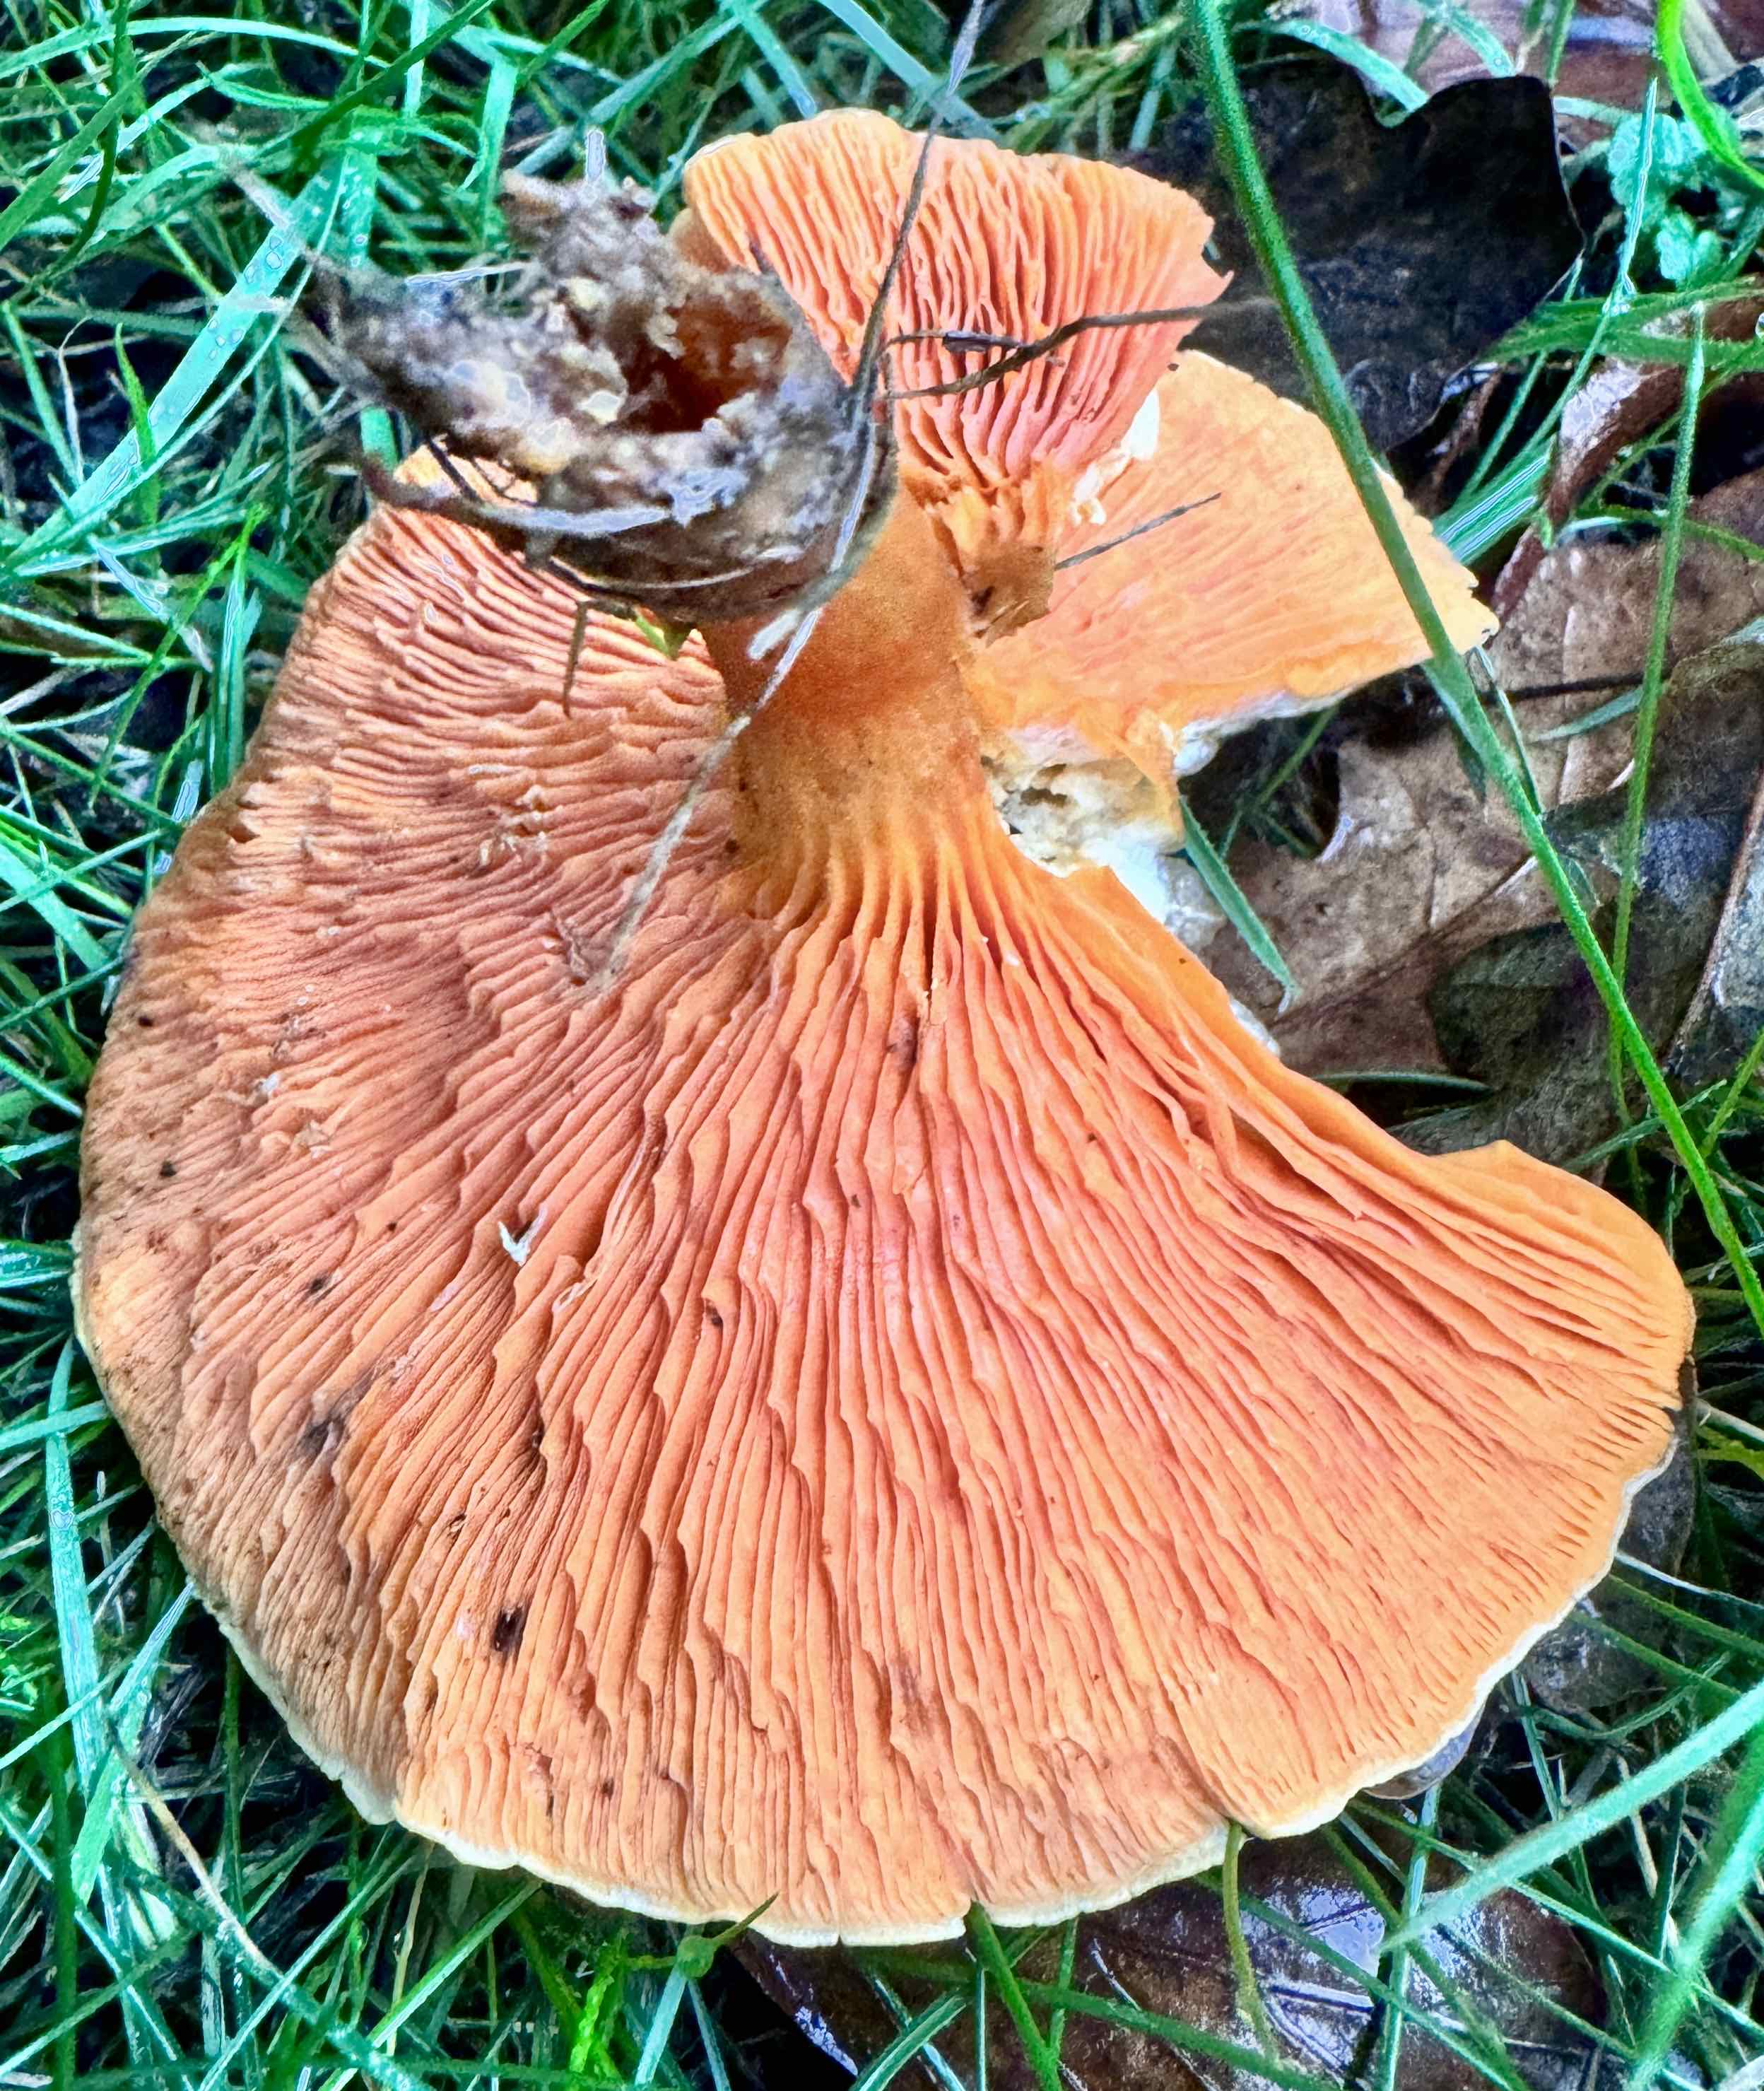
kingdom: Fungi
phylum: Basidiomycota
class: Agaricomycetes
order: Boletales
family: Hygrophoropsidaceae
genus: Hygrophoropsis
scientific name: Hygrophoropsis aurantiaca
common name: almindelig orangekantarel
